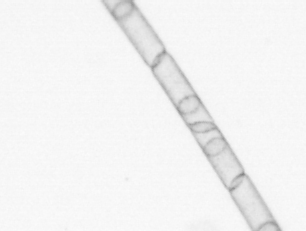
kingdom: Chromista
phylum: Ochrophyta
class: Bacillariophyceae
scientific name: Bacillariophyceae
